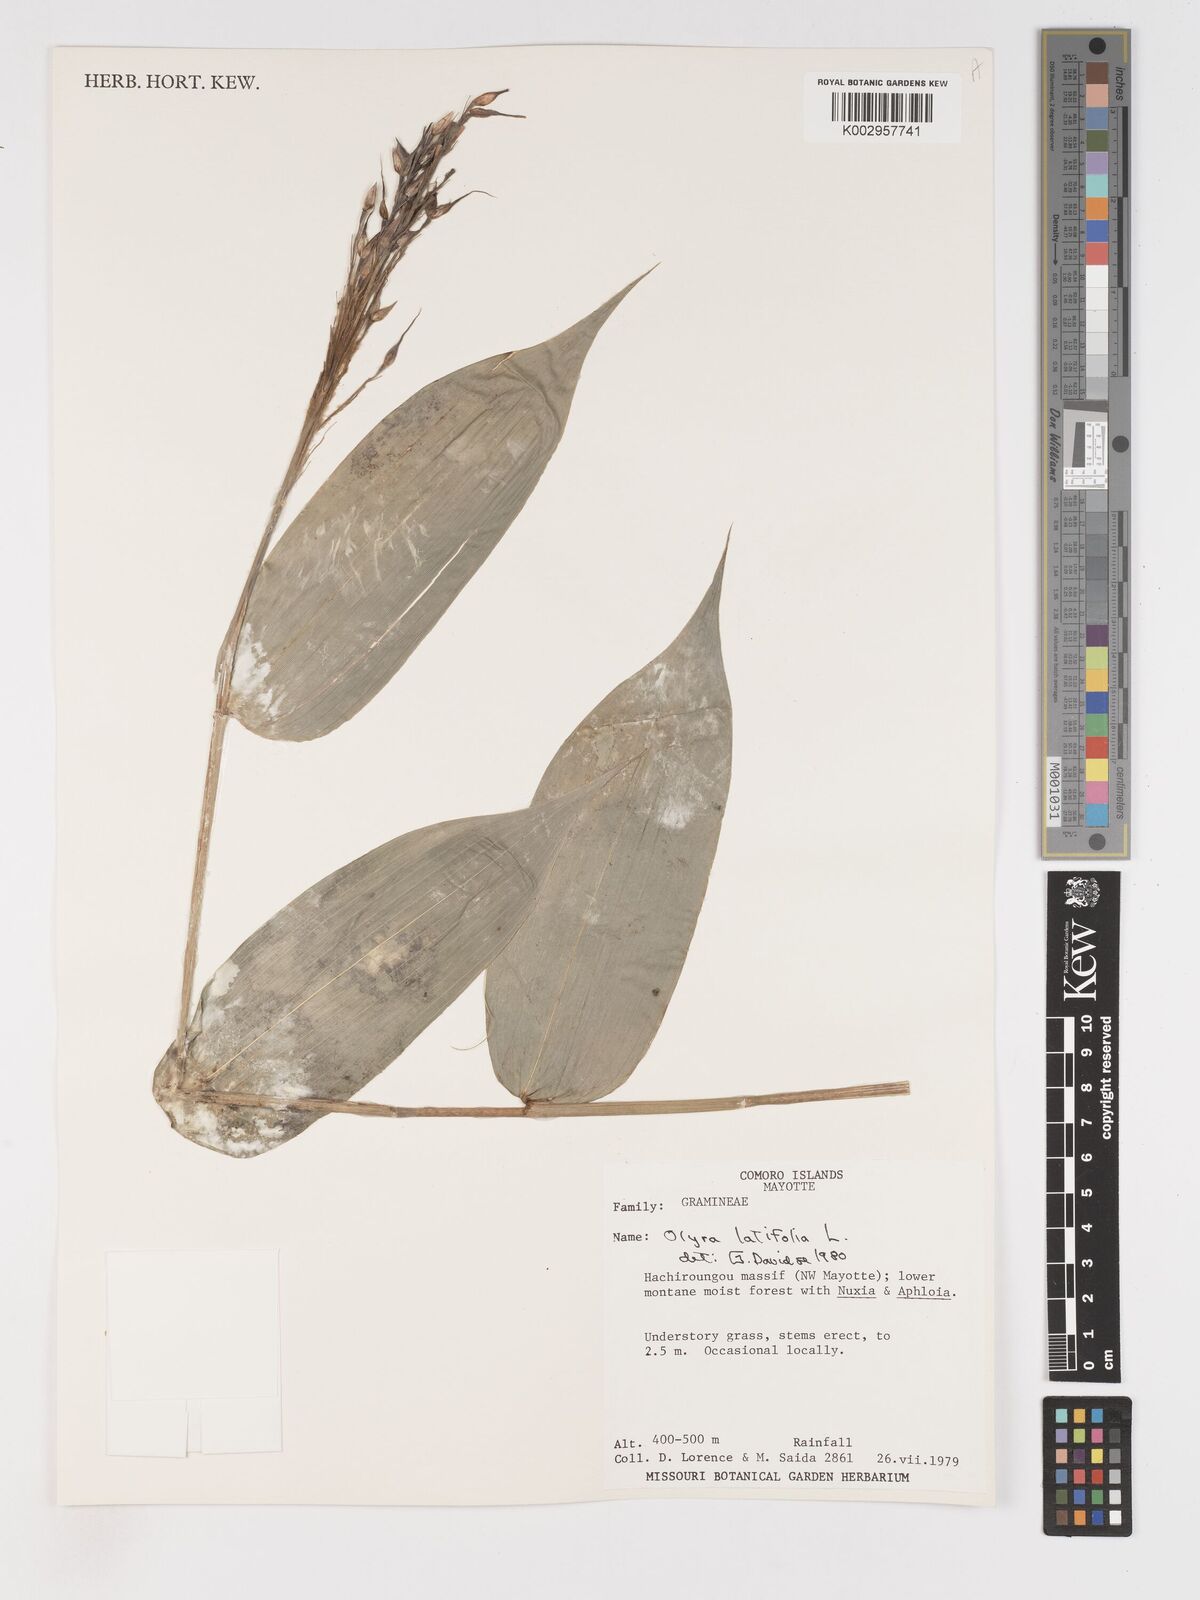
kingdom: Plantae
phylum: Tracheophyta
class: Liliopsida
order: Poales
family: Poaceae
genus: Olyra
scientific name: Olyra latifolia
